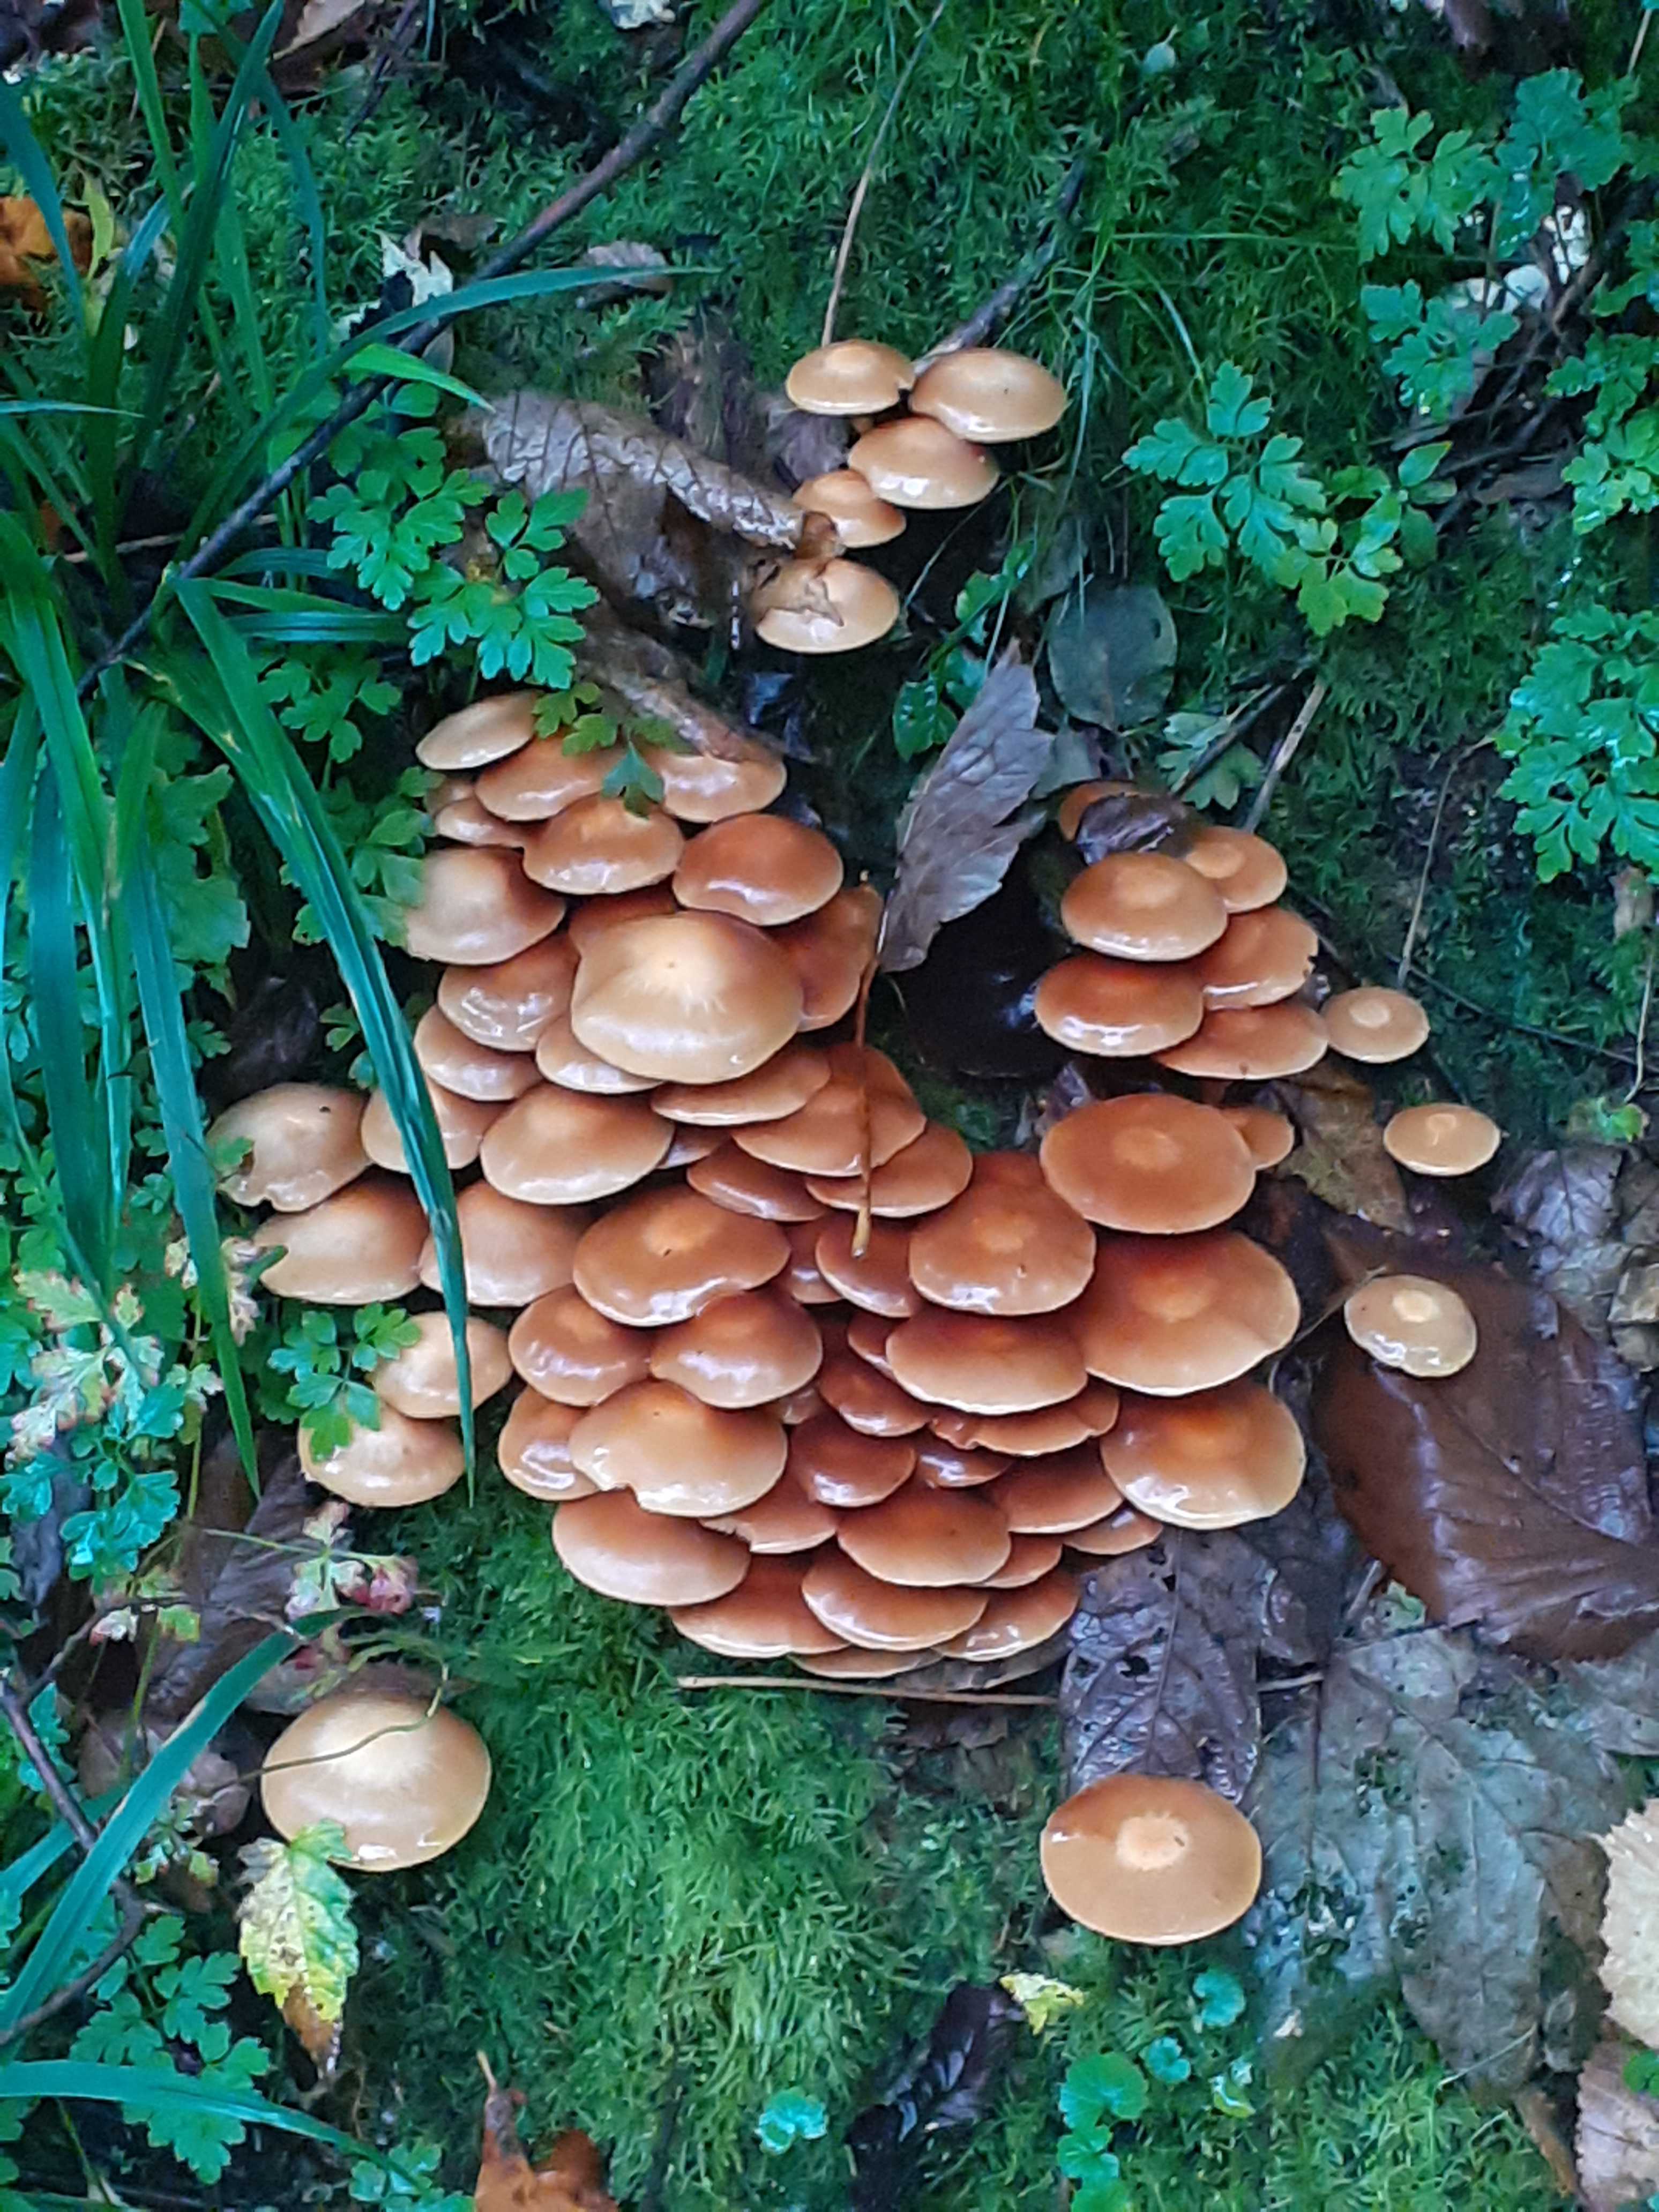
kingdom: Fungi
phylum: Basidiomycota
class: Agaricomycetes
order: Agaricales
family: Strophariaceae
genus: Kuehneromyces
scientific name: Kuehneromyces mutabilis
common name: foranderlig skælhat
